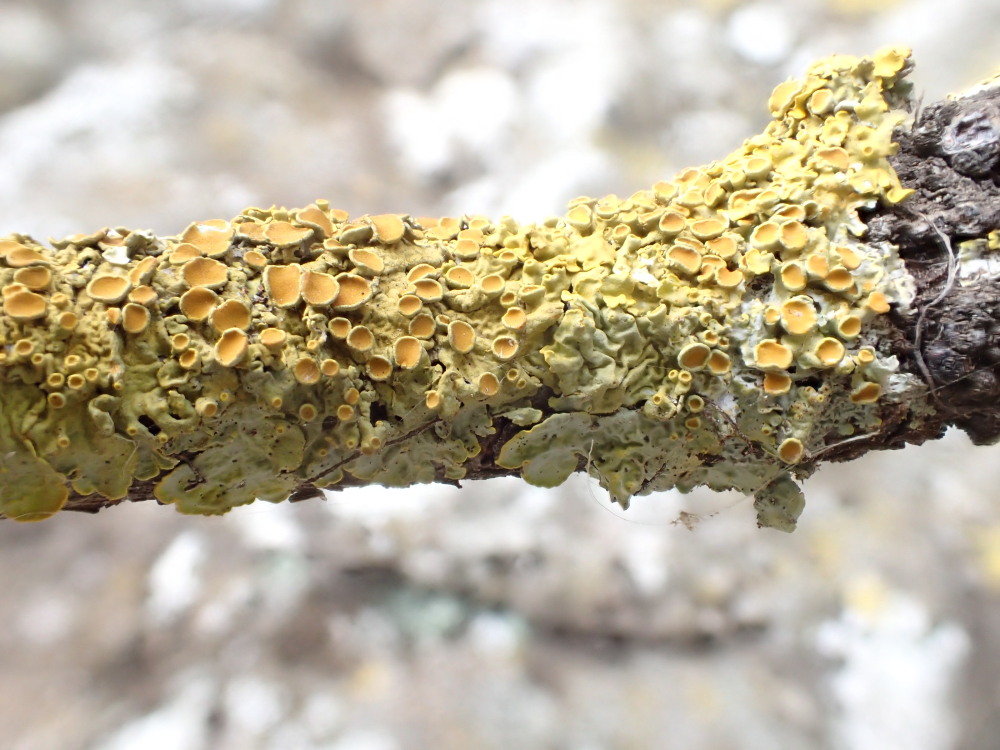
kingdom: Fungi
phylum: Ascomycota
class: Lecanoromycetes
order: Teloschistales
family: Teloschistaceae
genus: Xanthoria
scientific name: Xanthoria parietina
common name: almindelig væggelav
